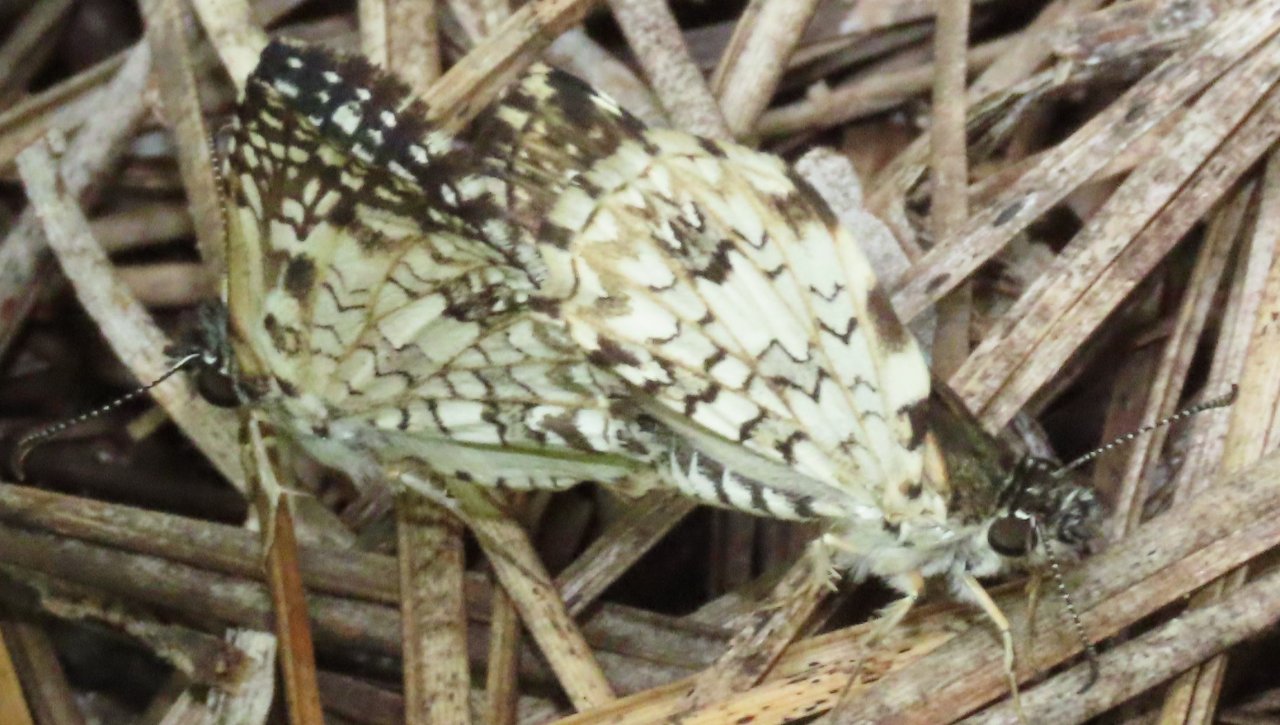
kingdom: Animalia
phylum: Arthropoda
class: Insecta
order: Lepidoptera
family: Hesperiidae
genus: Pyrgus
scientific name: Pyrgus oileus
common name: Tropical Checkered-Skipper
